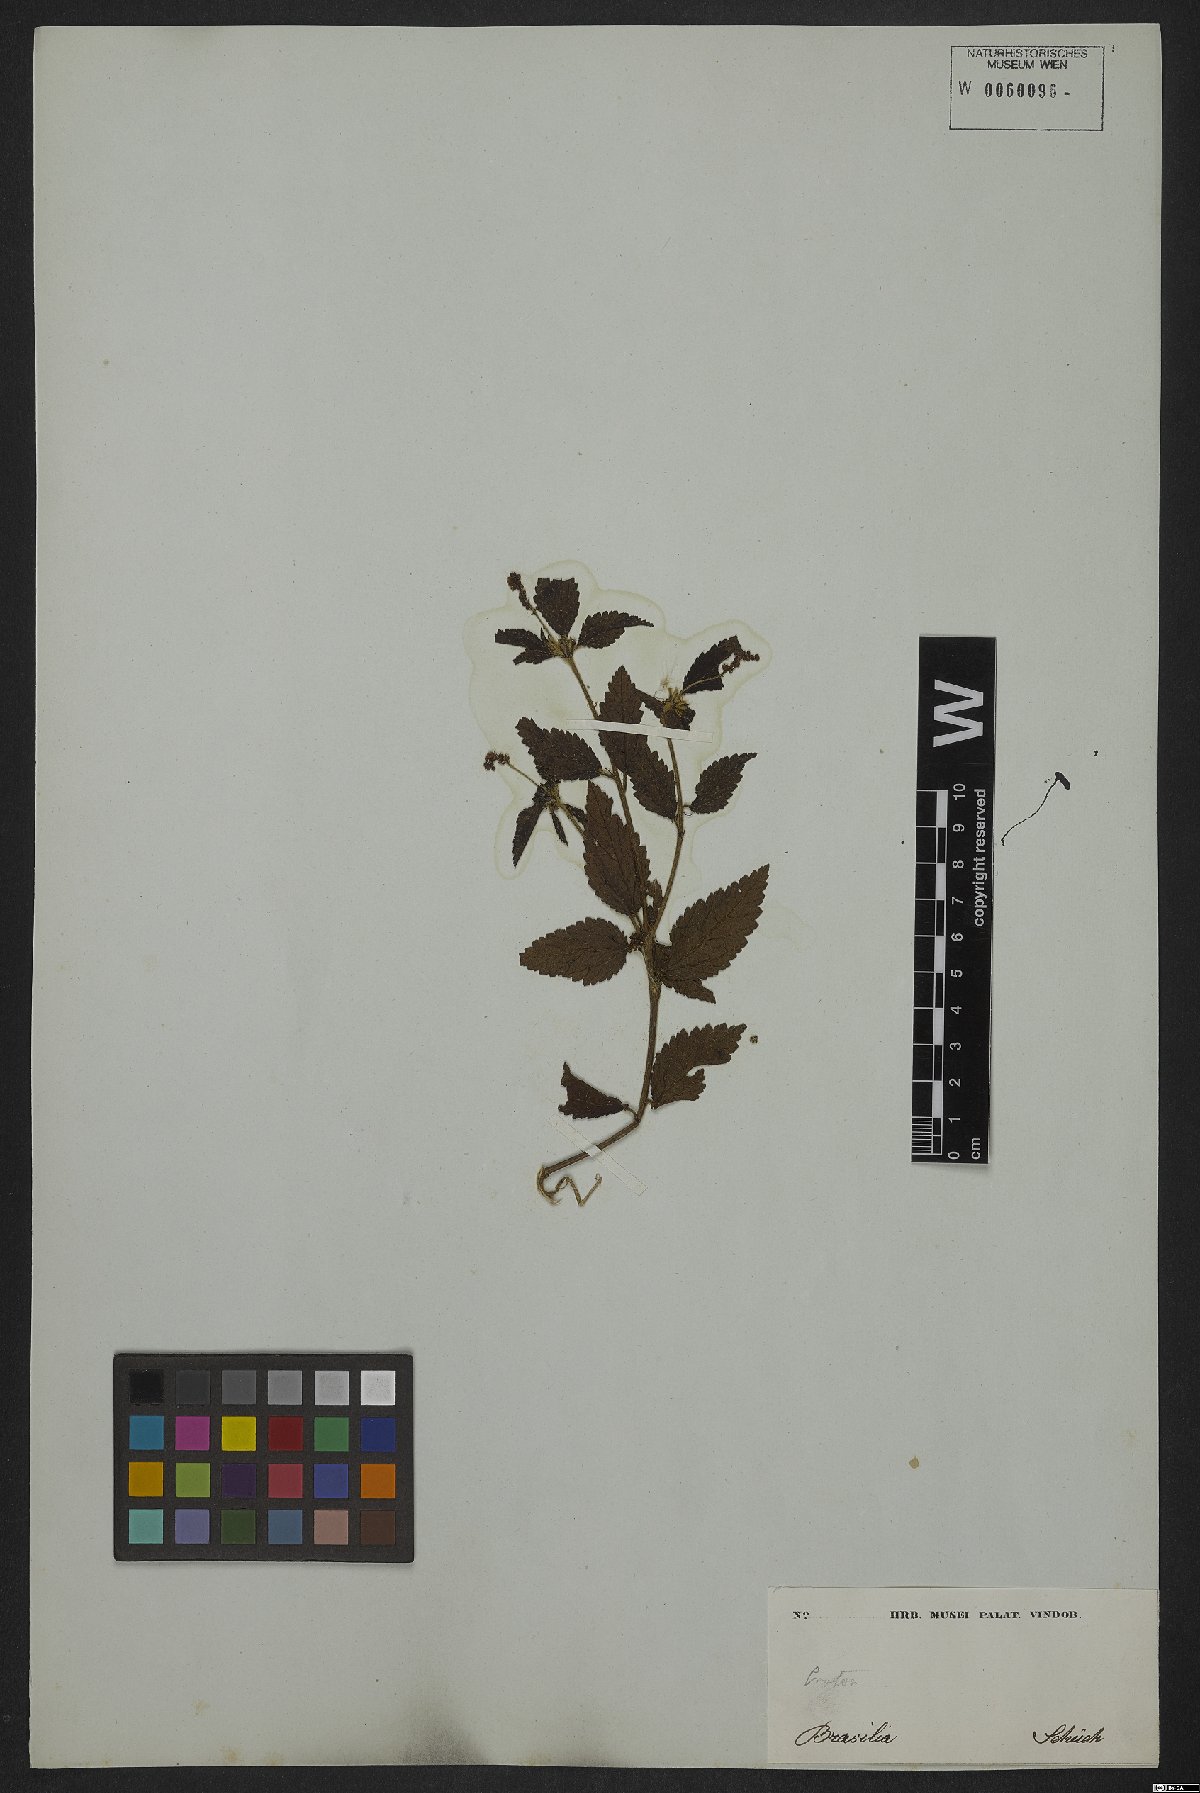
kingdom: Plantae
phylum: Tracheophyta
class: Magnoliopsida
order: Malpighiales
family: Euphorbiaceae
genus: Croton
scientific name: Croton lundianus
